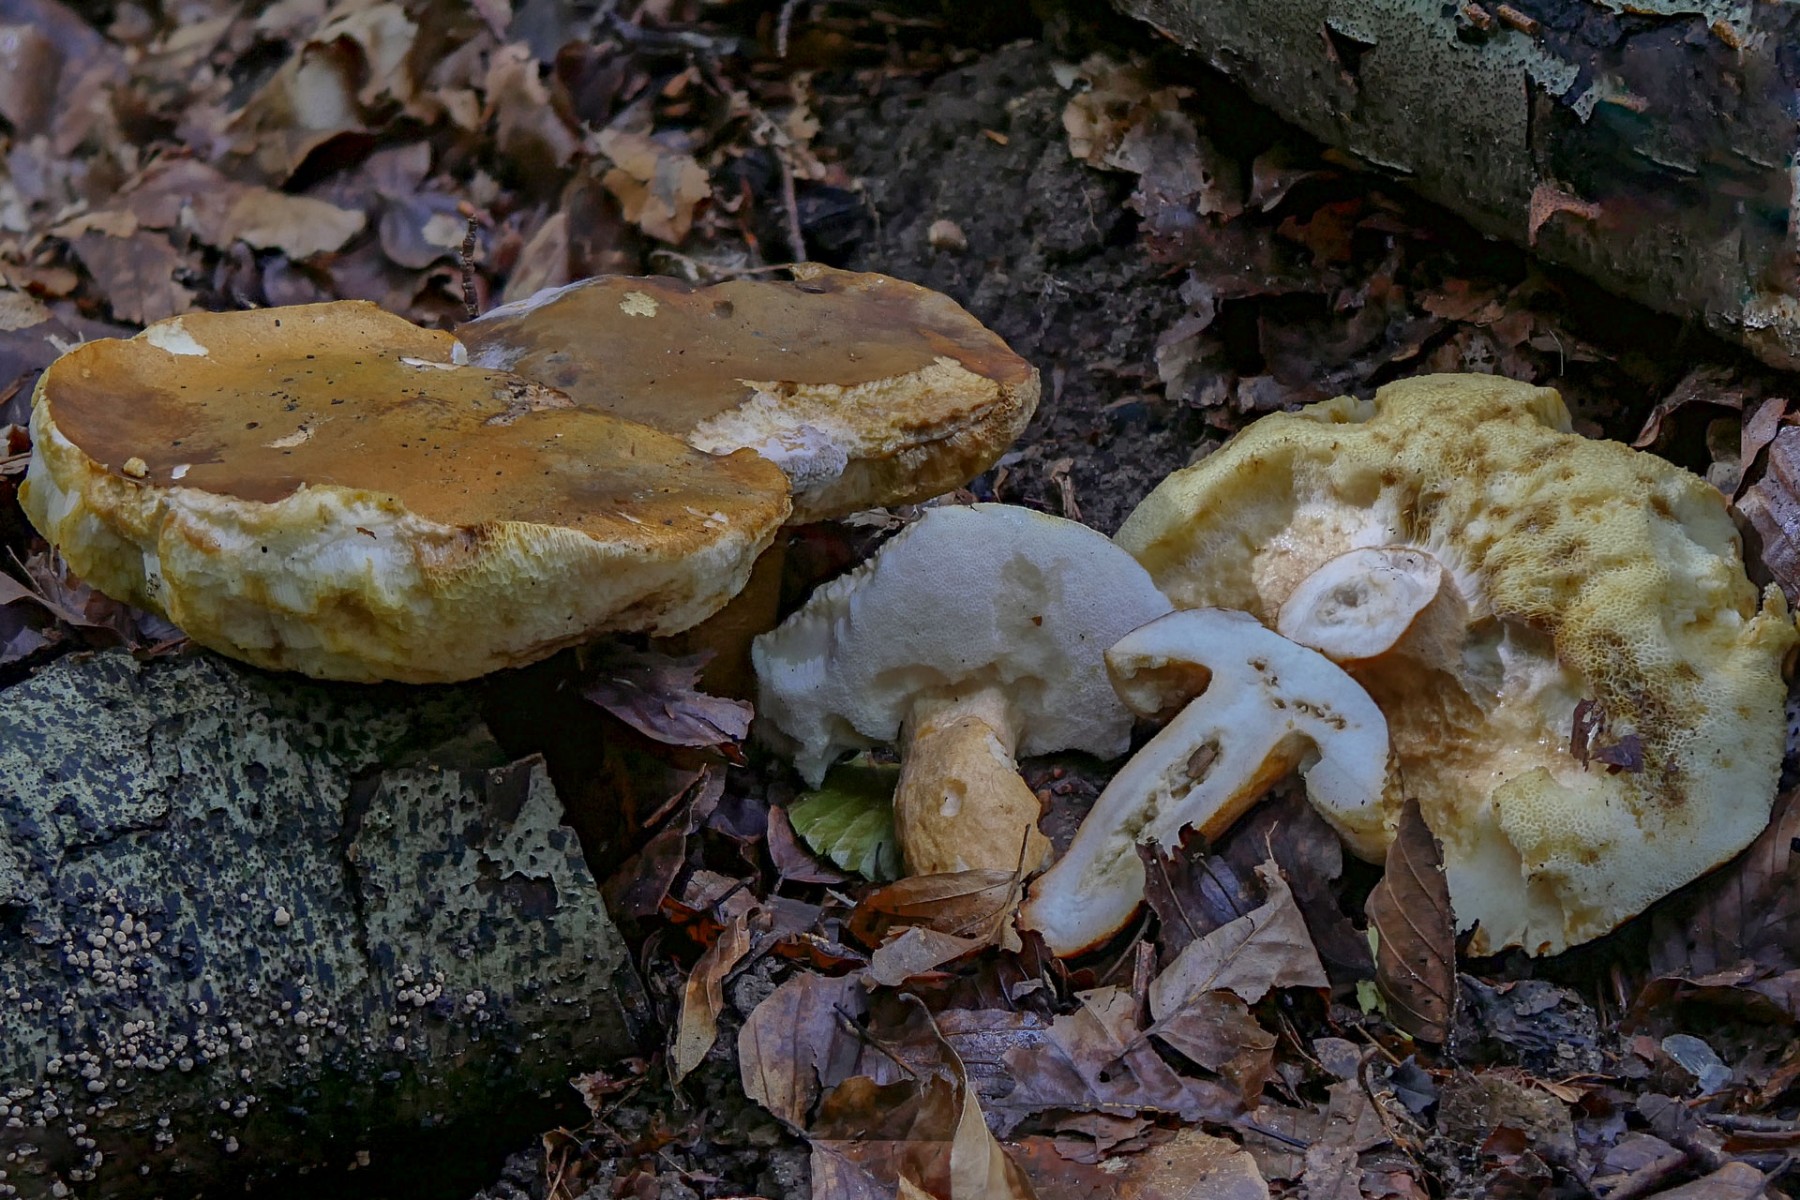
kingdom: Fungi
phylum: Basidiomycota
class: Agaricomycetes
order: Boletales
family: Gyroporaceae
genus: Gyroporus
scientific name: Gyroporus castaneus
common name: kastanie-kammerrørhat
